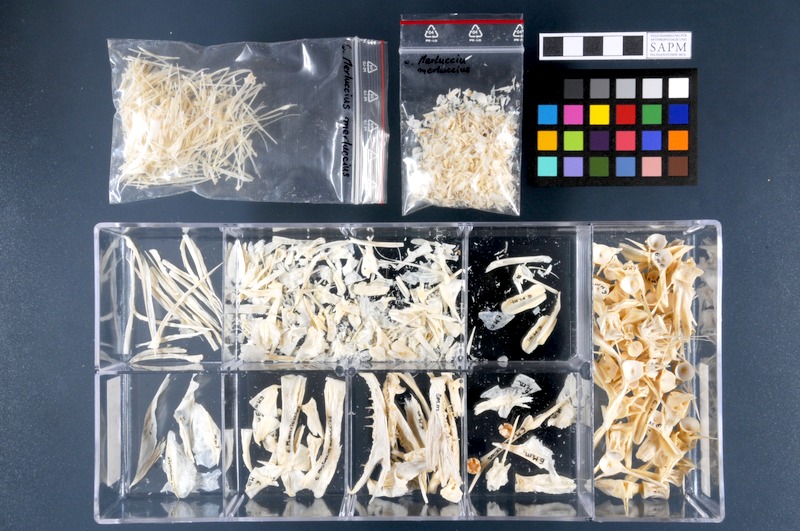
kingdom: Animalia
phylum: Chordata
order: Gadiformes
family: Merlucciidae
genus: Merluccius
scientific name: Merluccius merluccius
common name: European hake
